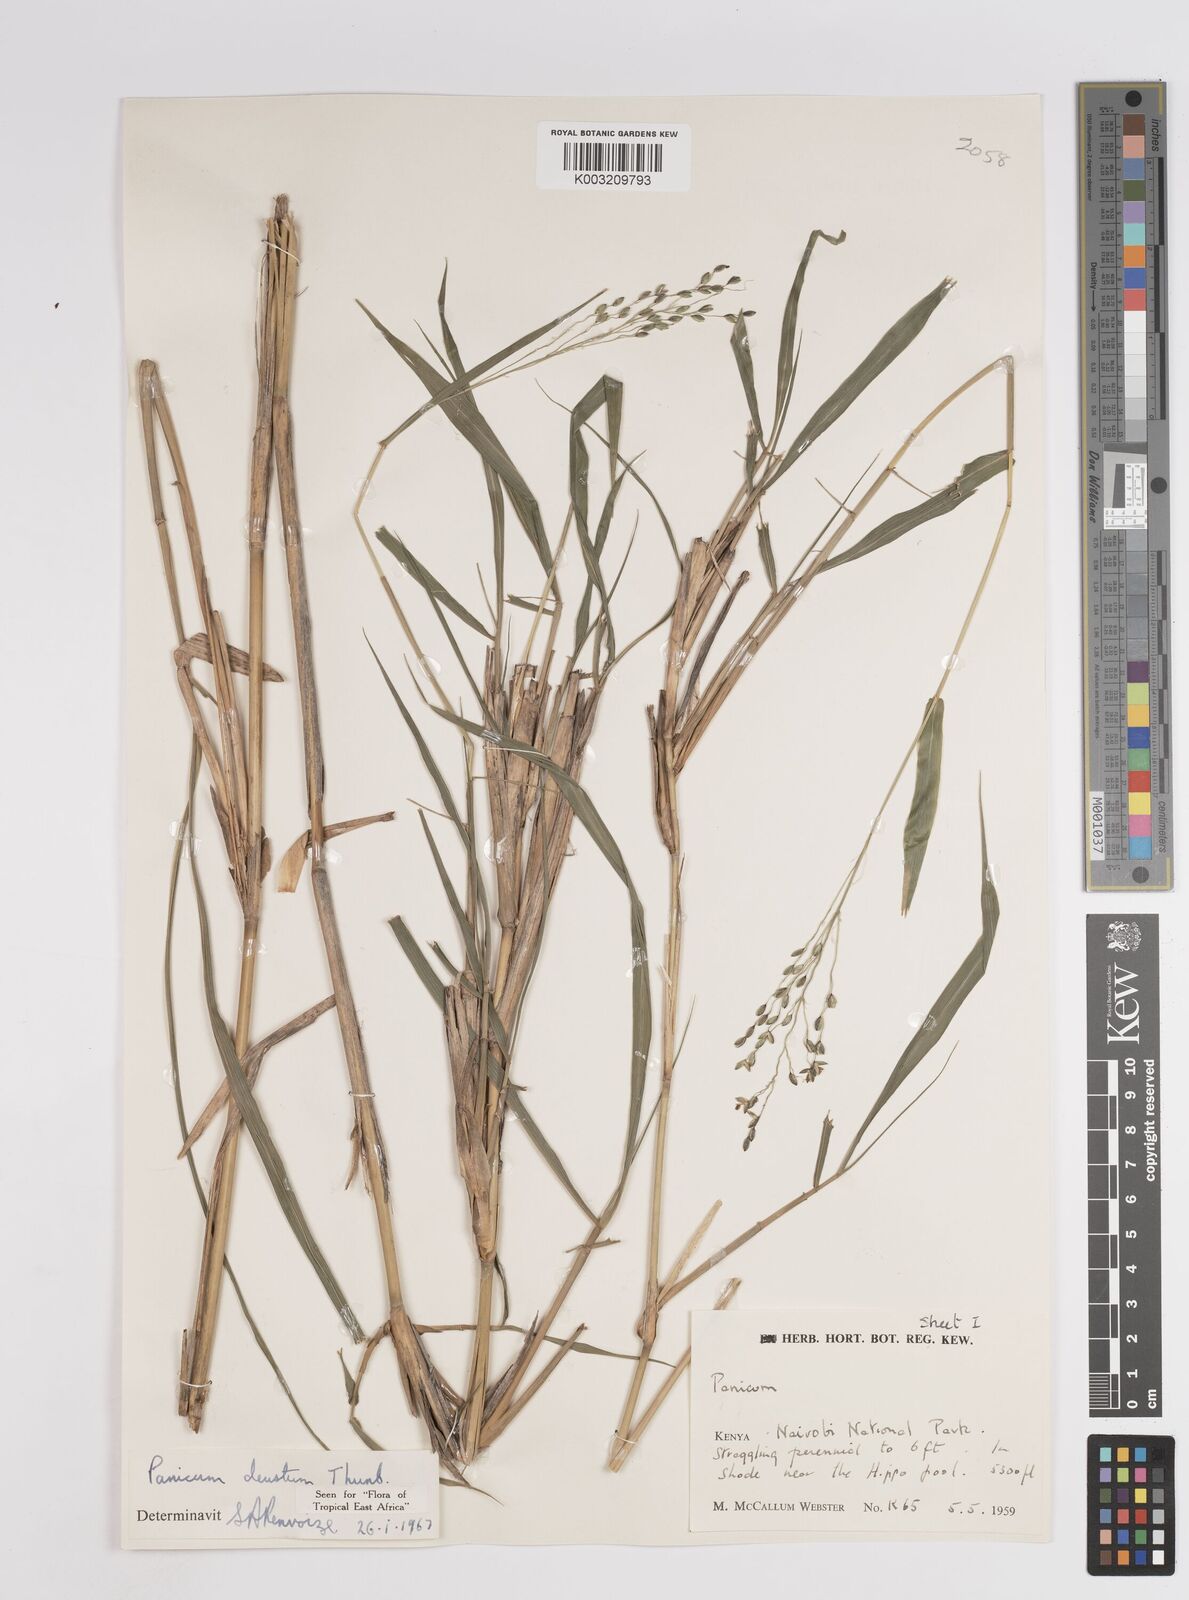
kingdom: Plantae
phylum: Tracheophyta
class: Liliopsida
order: Poales
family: Poaceae
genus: Panicum
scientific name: Panicum deustum
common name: Reed panicum
